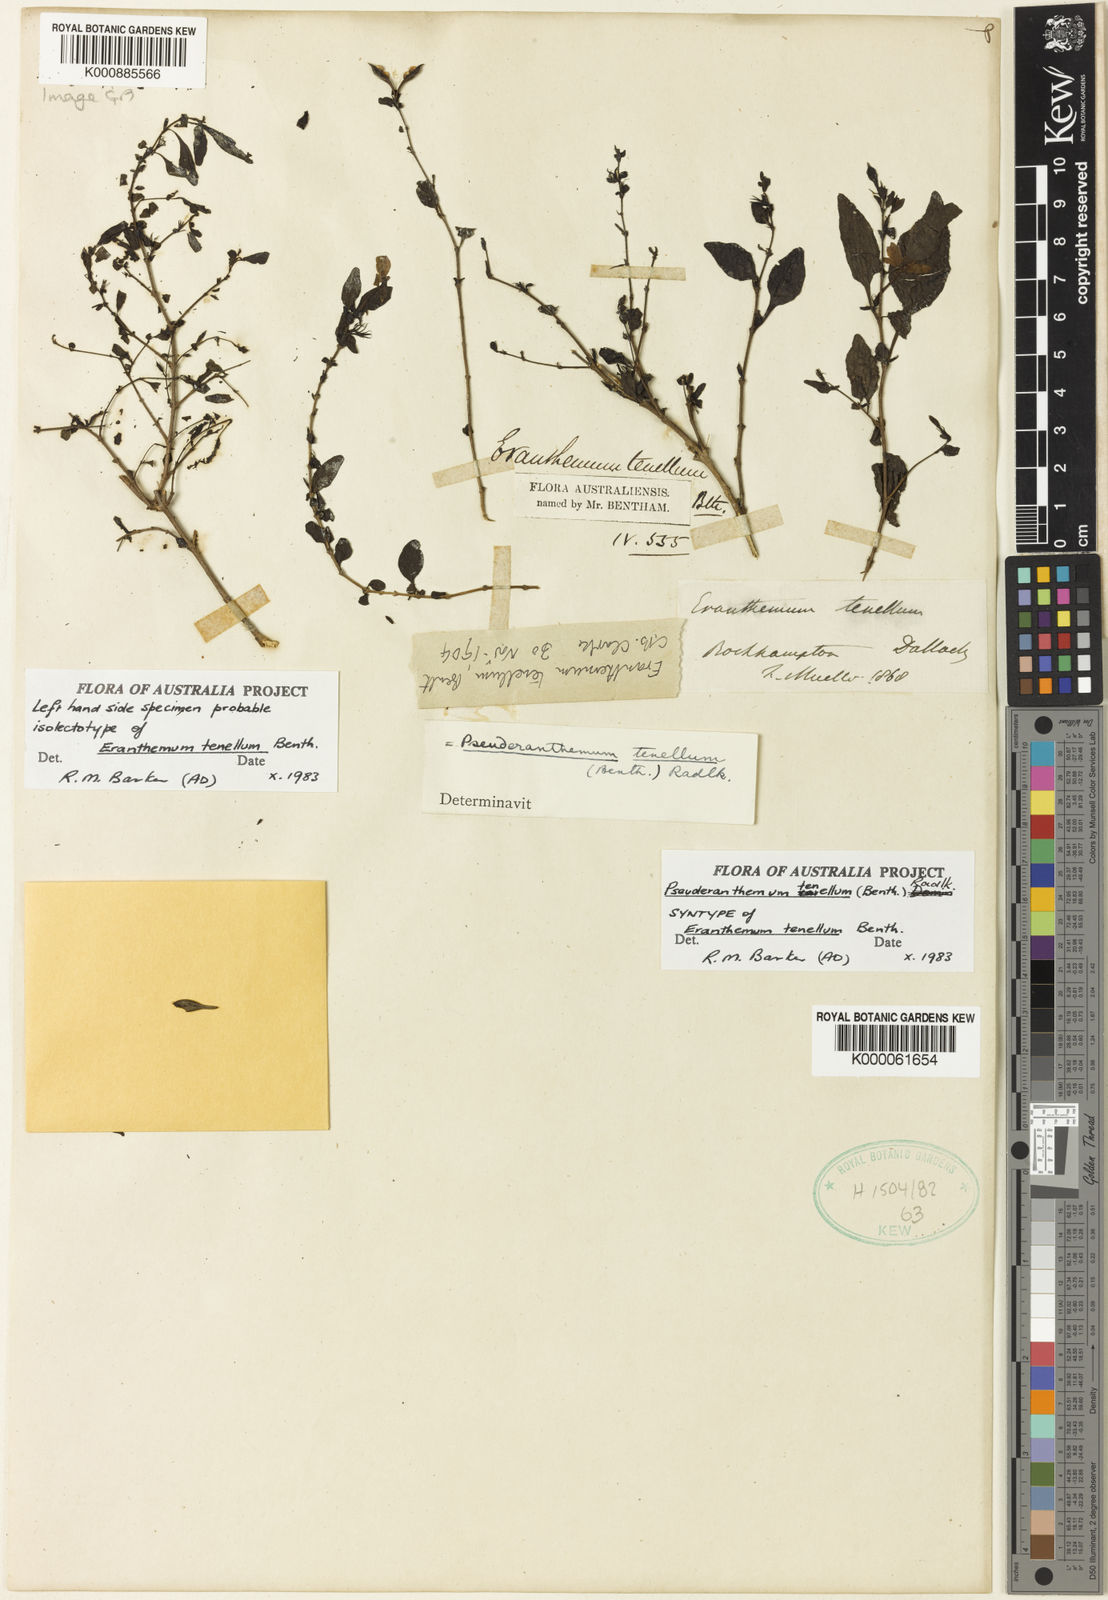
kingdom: Plantae
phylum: Tracheophyta
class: Magnoliopsida
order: Lamiales
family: Acanthaceae
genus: Pseuderanthemum
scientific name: Pseuderanthemum tenellum
